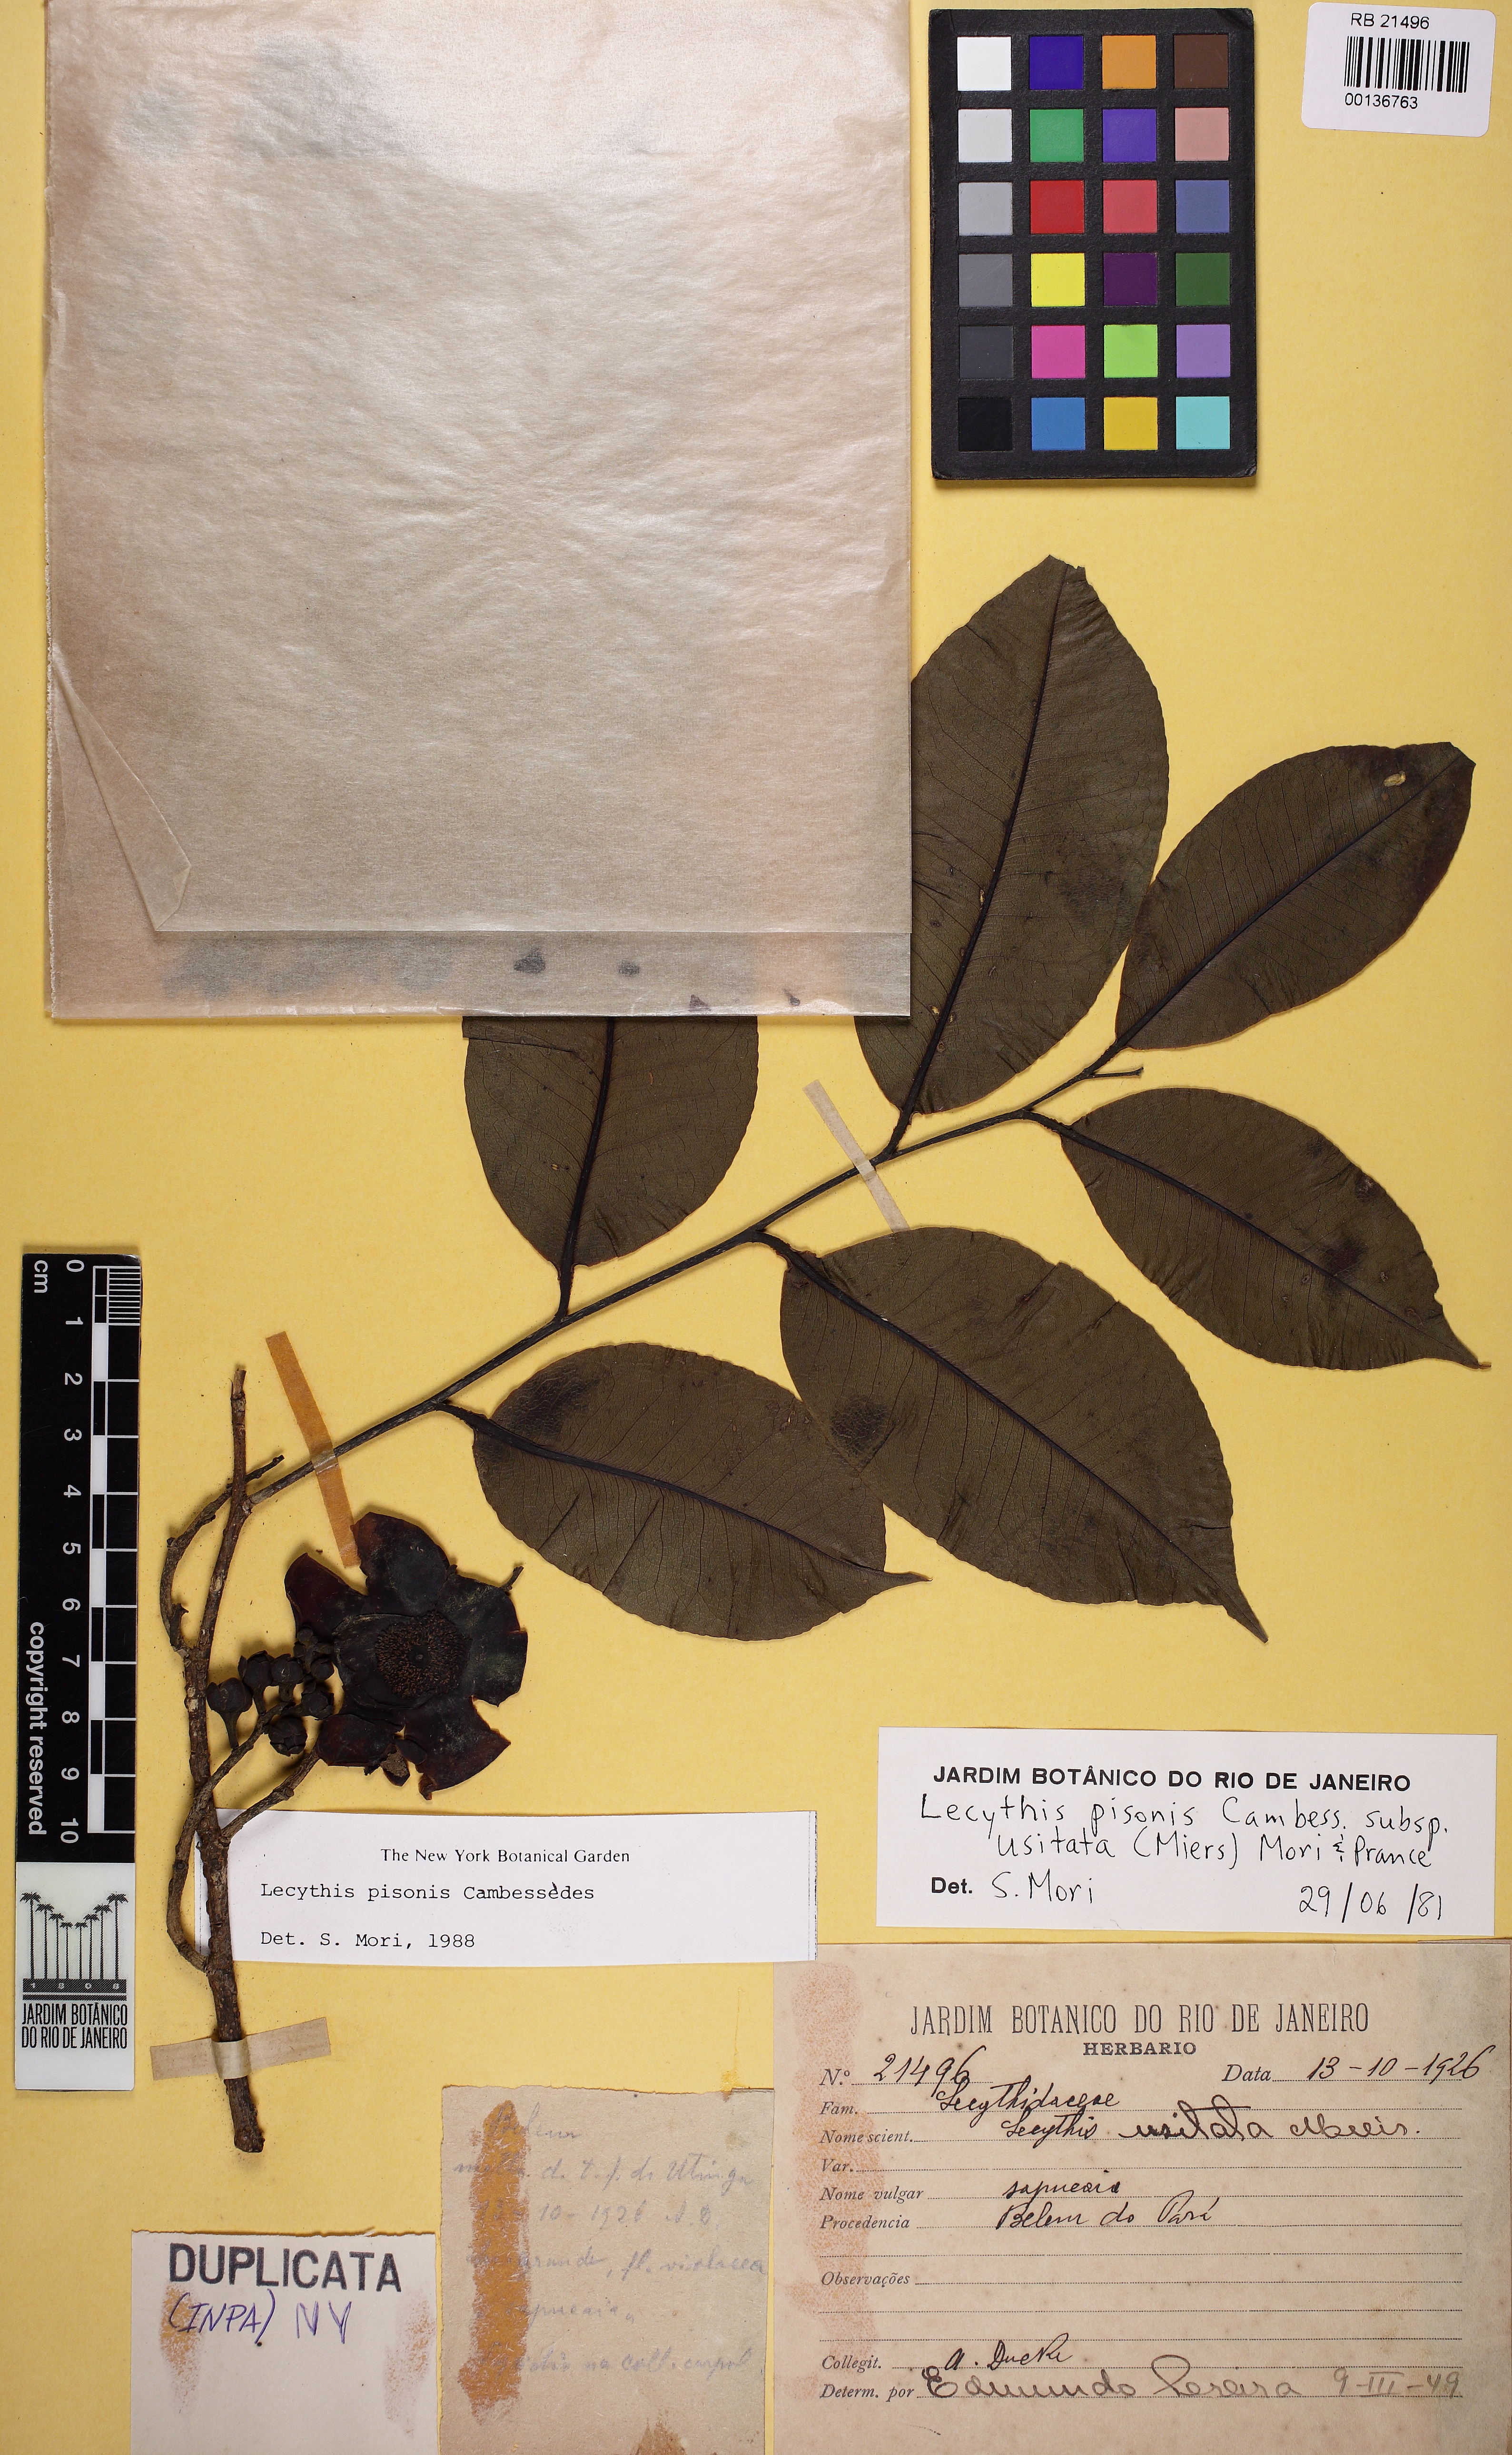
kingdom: Plantae
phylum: Tracheophyta
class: Magnoliopsida
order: Ericales
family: Lecythidaceae
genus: Lecythis
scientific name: Lecythis pisonis
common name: Paradise-nut
